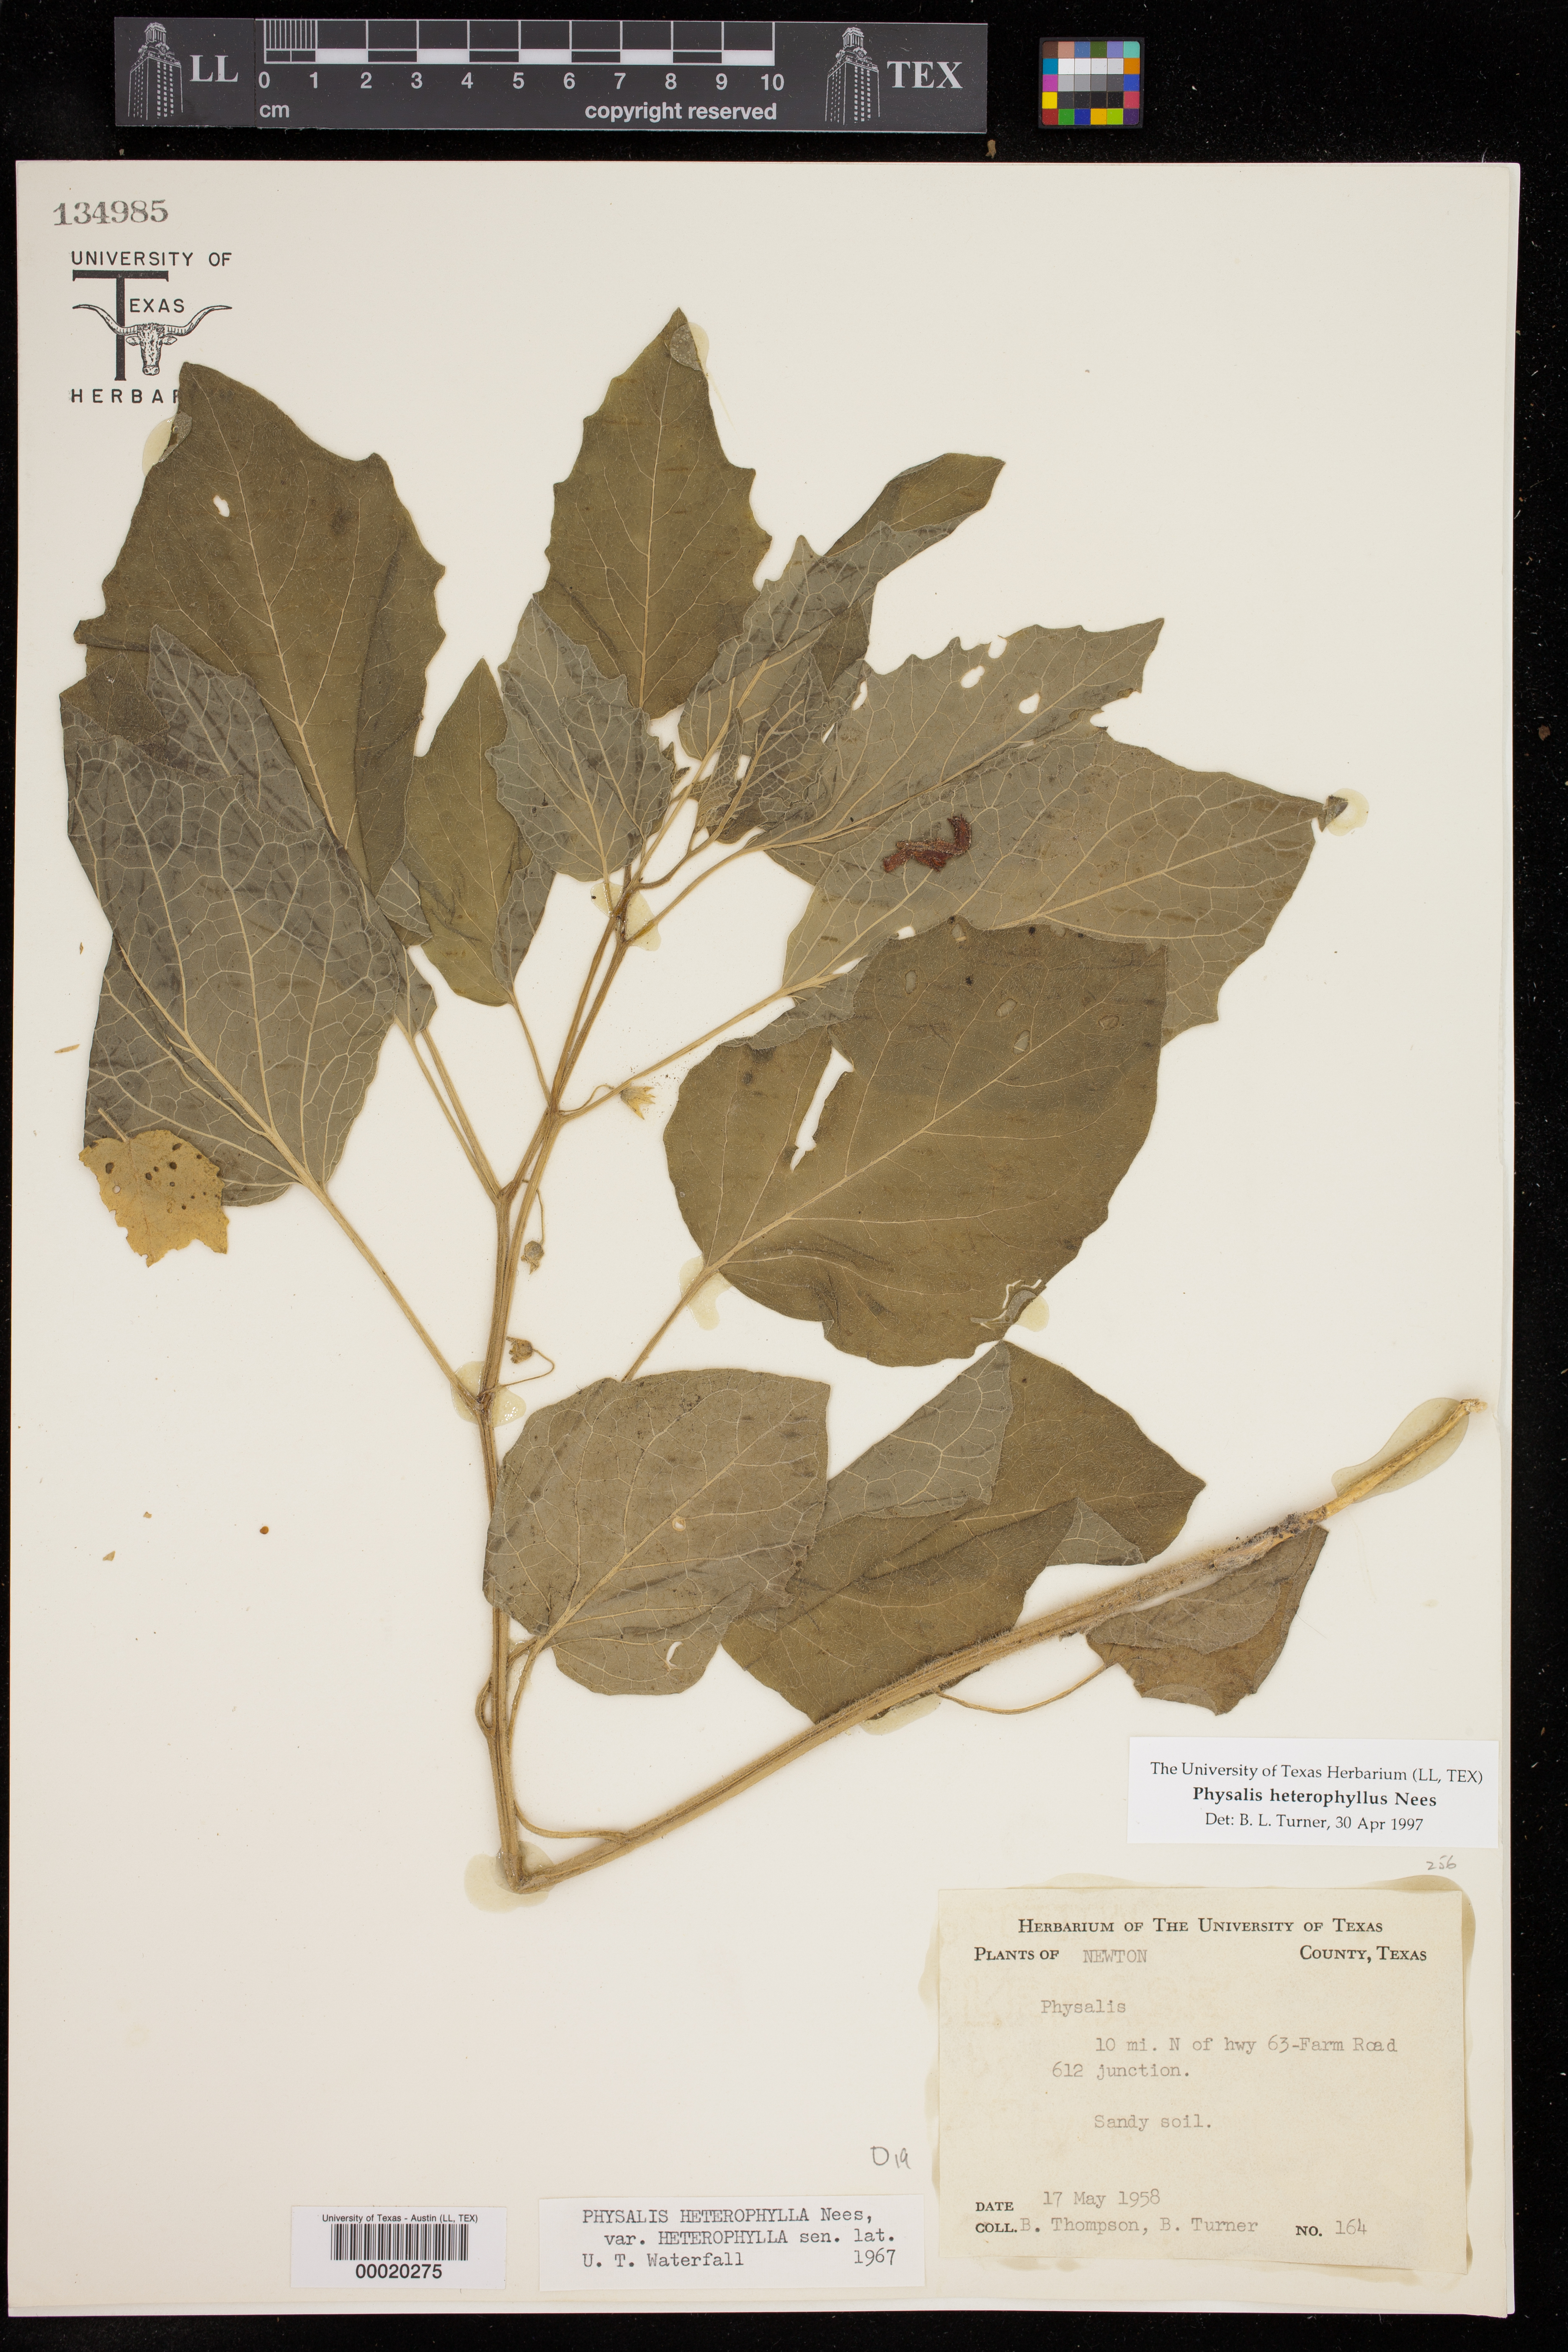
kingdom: Plantae
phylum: Tracheophyta
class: Magnoliopsida
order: Solanales
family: Solanaceae
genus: Physalis
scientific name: Physalis heterophylla
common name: Clammy ground-cherry
